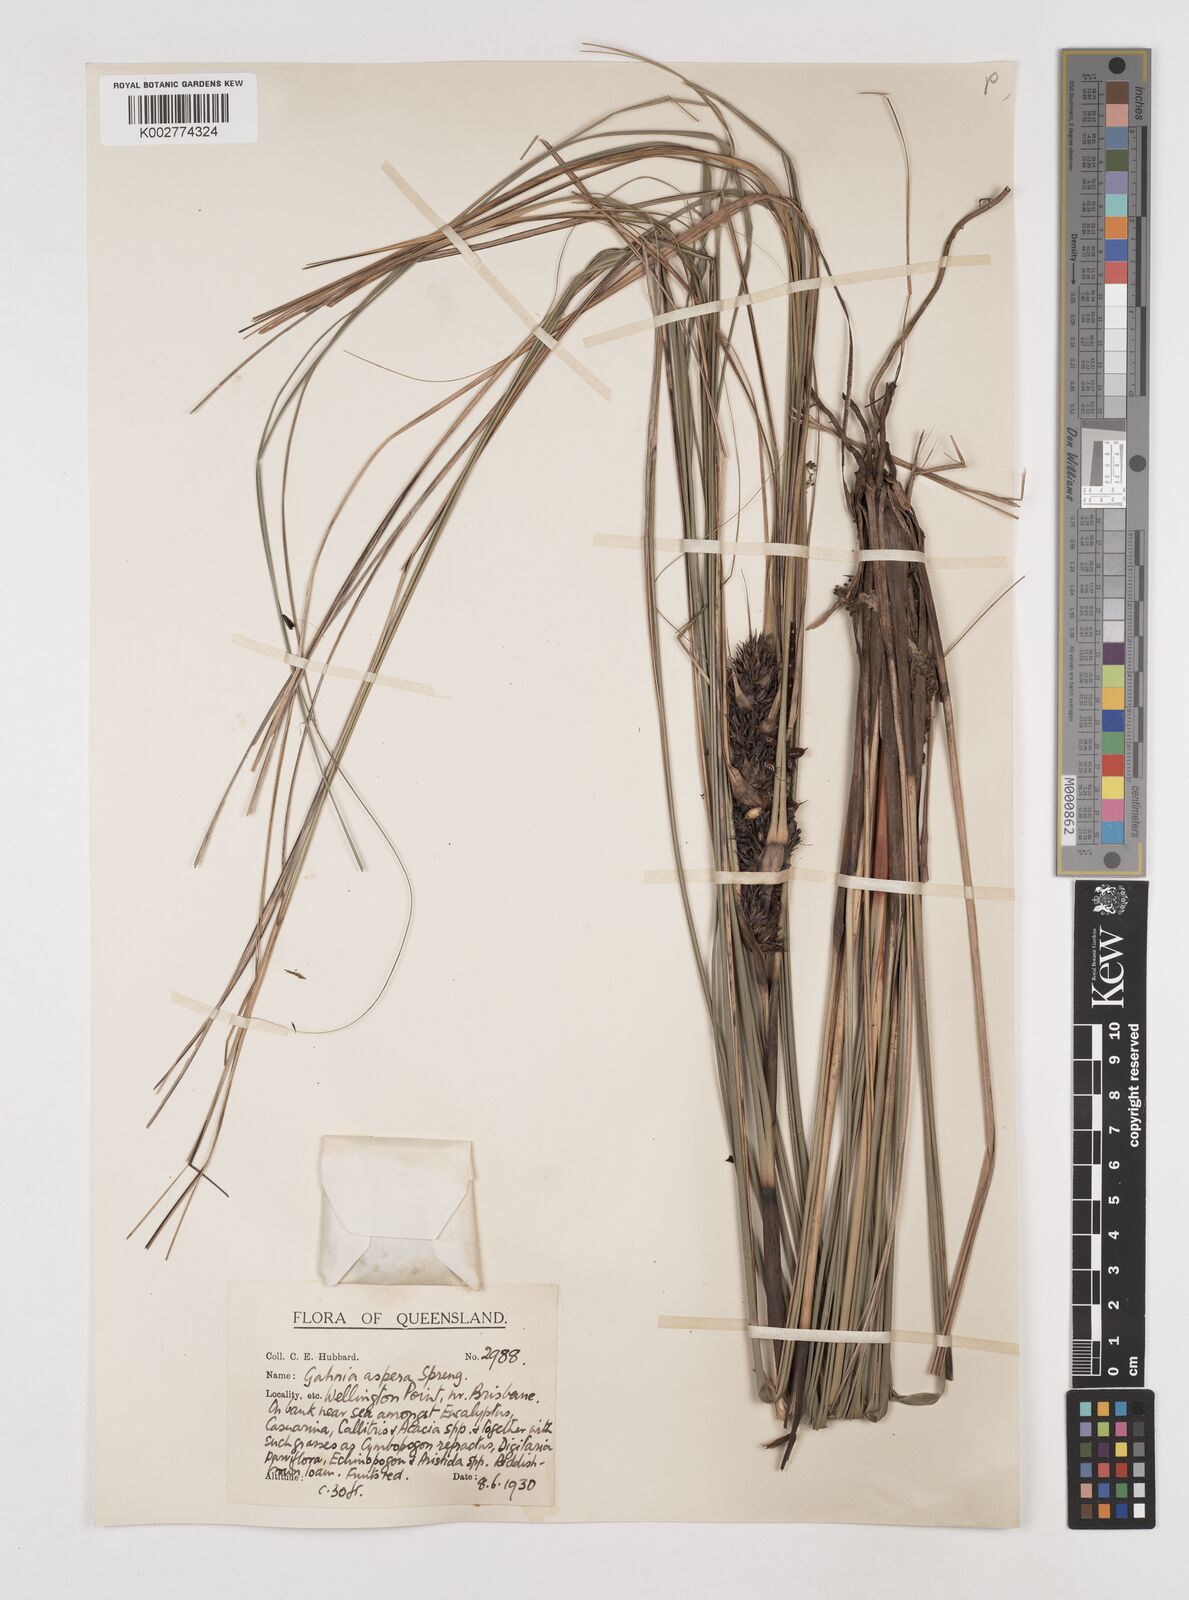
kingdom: Plantae
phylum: Tracheophyta
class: Liliopsida
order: Poales
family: Cyperaceae
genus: Gahnia
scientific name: Gahnia aspera
